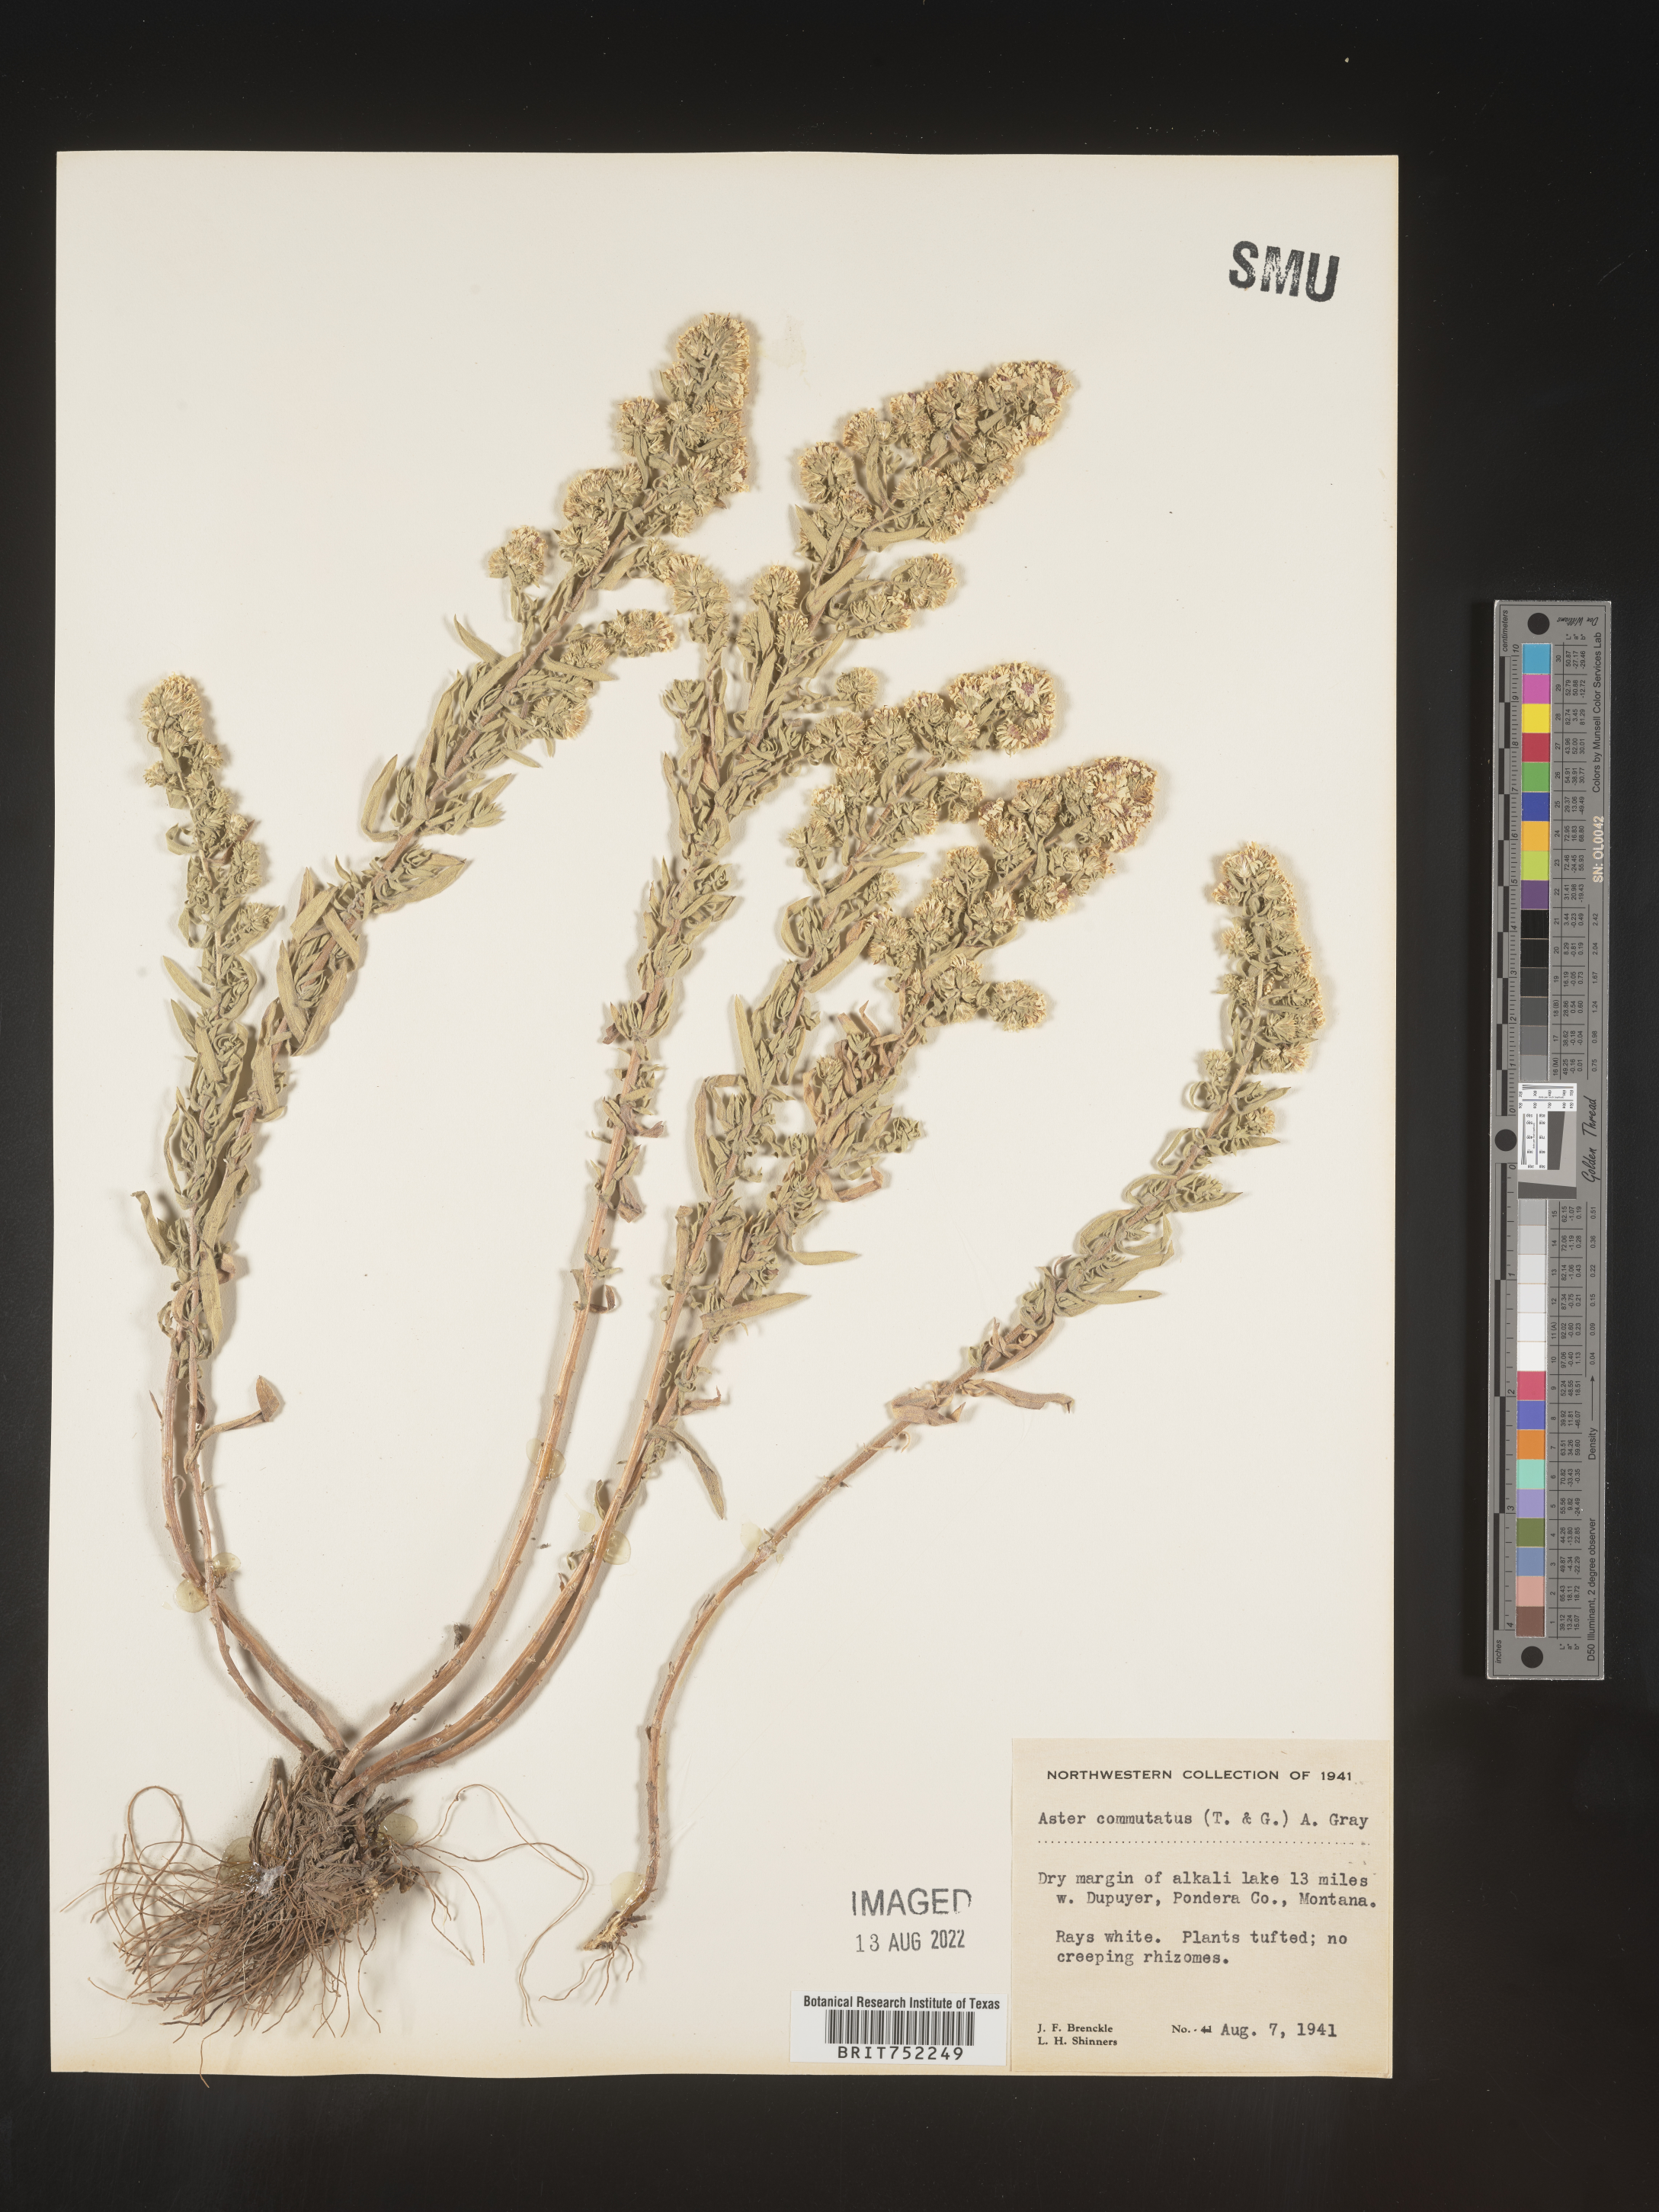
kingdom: Plantae
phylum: Tracheophyta
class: Magnoliopsida
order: Asterales
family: Asteraceae
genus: Symphyotrichum
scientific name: Symphyotrichum ericoides
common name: Heath aster
